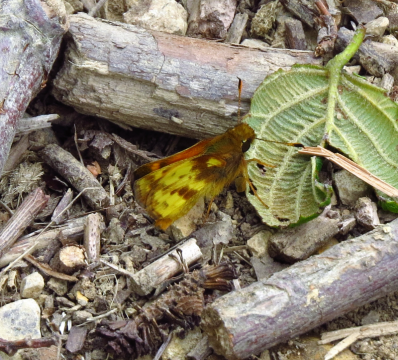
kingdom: Animalia
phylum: Arthropoda
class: Insecta
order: Lepidoptera
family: Hesperiidae
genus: Lon
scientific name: Lon zabulon
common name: Zabulon Skipper
